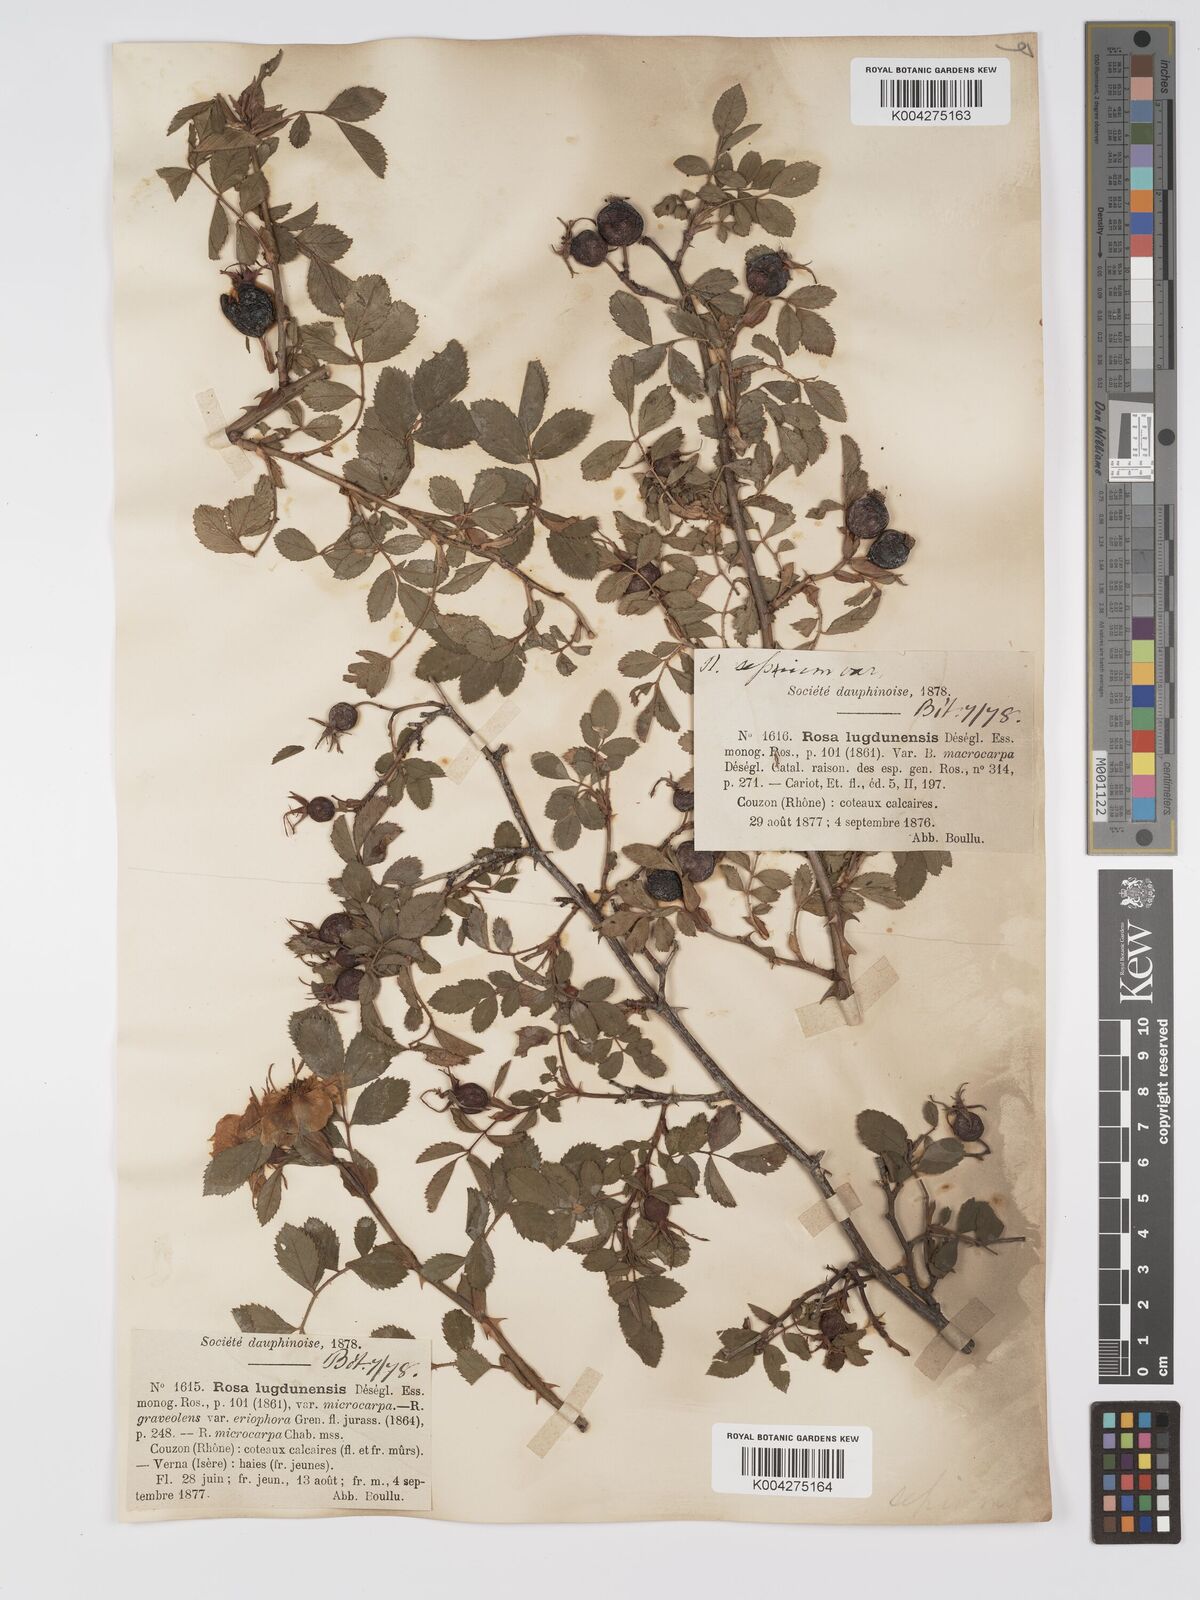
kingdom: Plantae
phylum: Tracheophyta
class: Magnoliopsida
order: Rosales
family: Rosaceae
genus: Rosa
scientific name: Rosa
